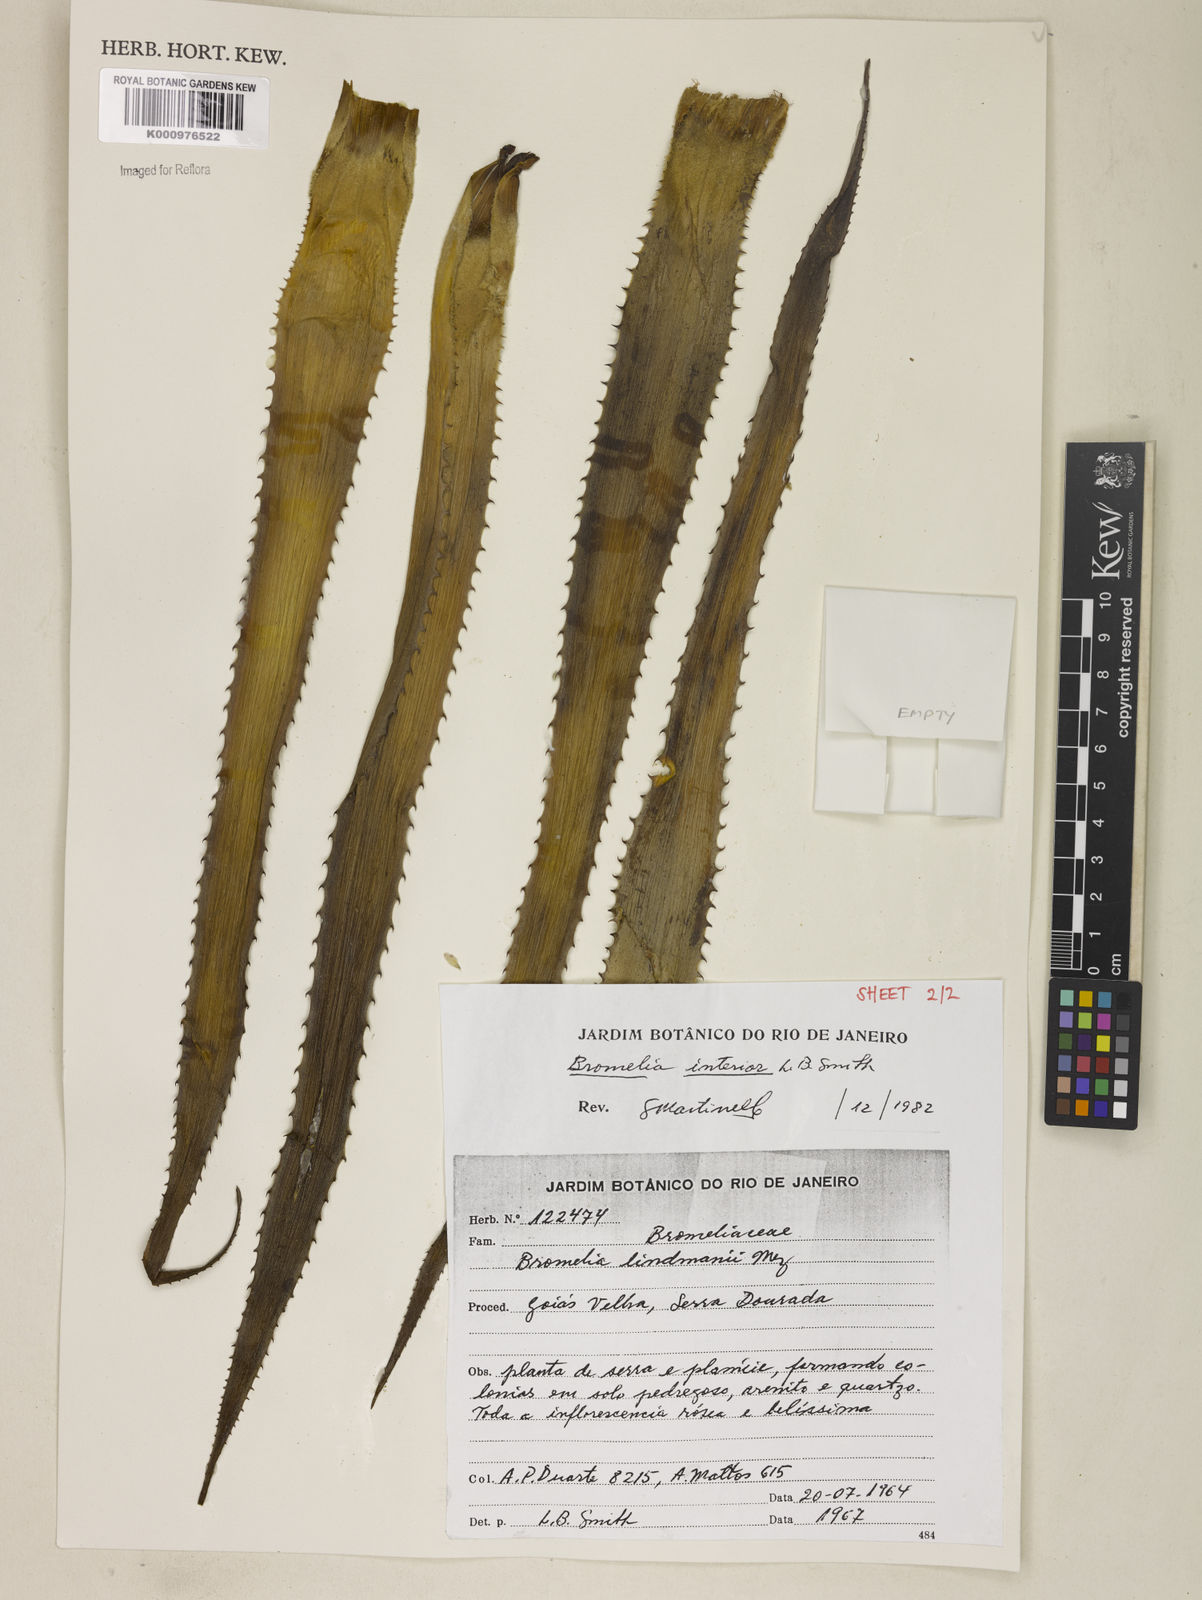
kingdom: Plantae
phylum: Tracheophyta
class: Liliopsida
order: Poales
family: Bromeliaceae
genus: Bromelia
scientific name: Bromelia interior
